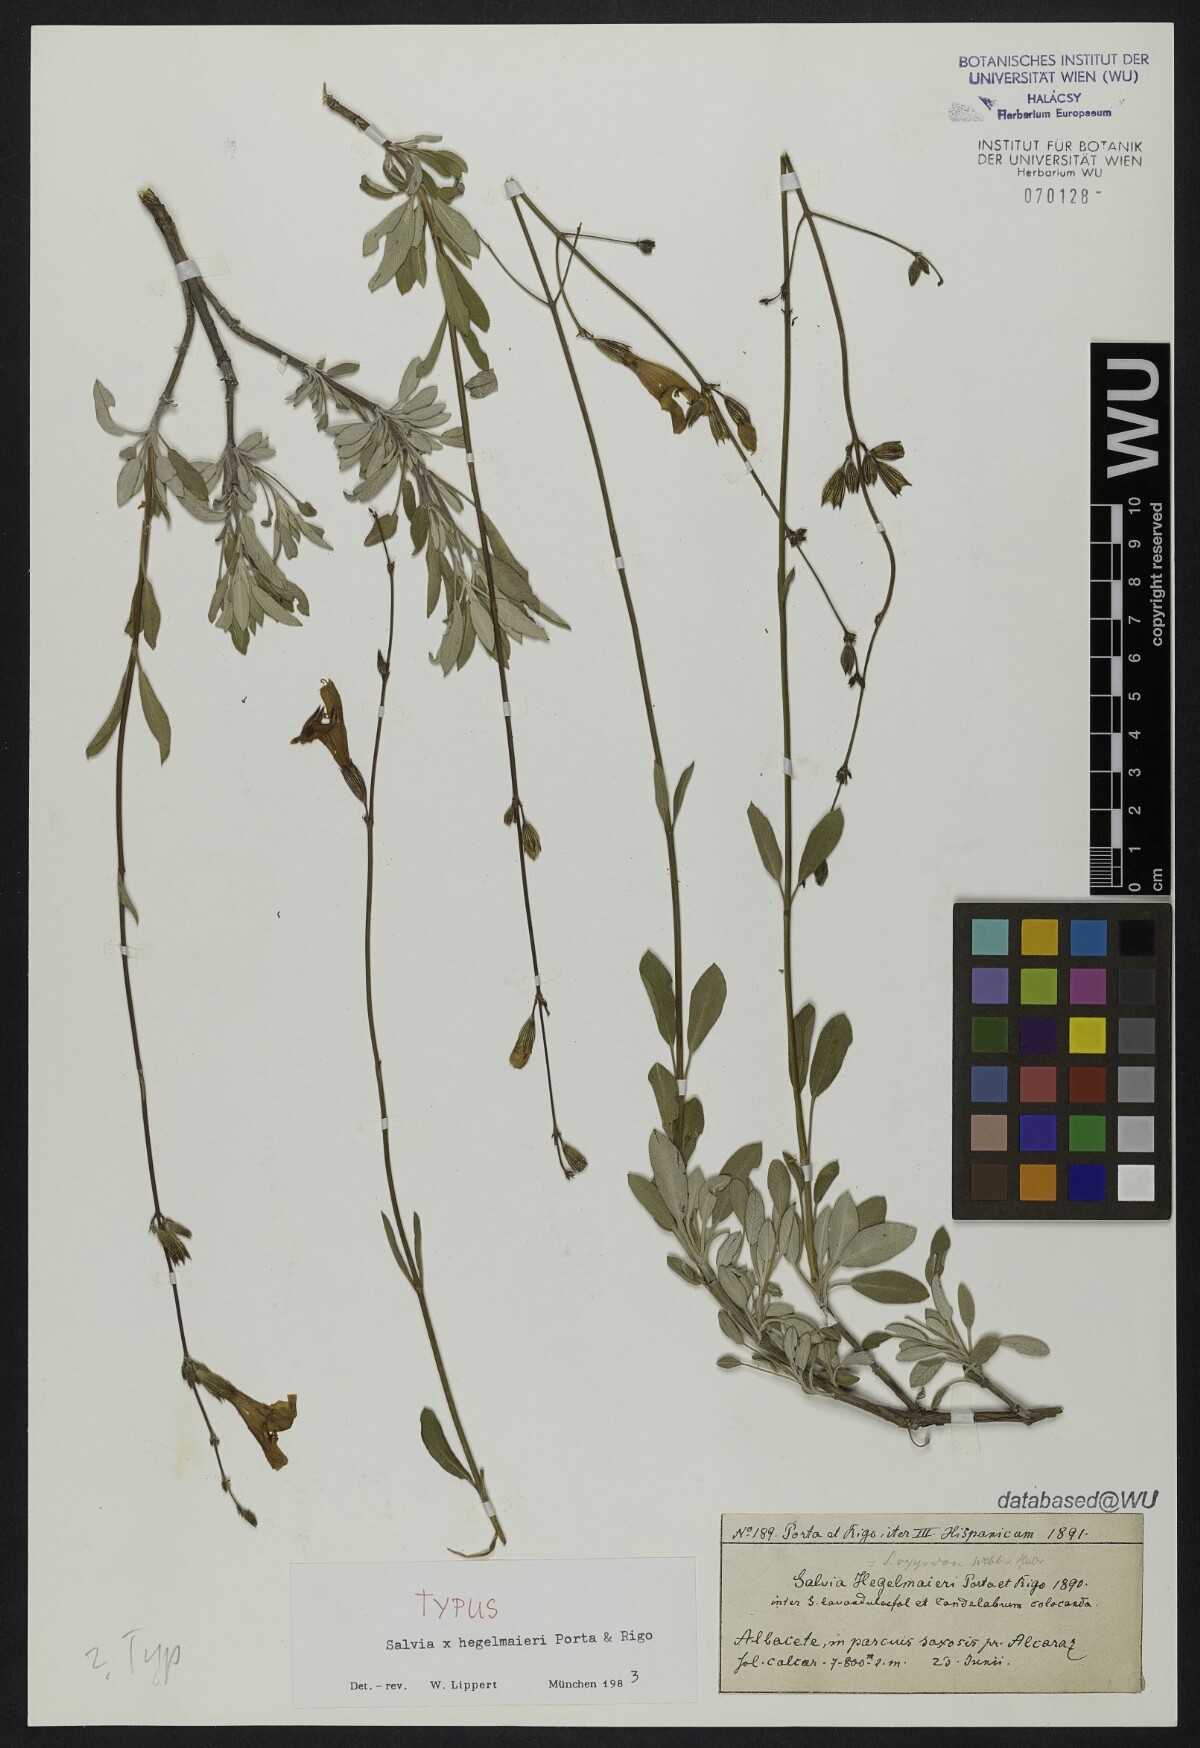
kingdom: Plantae
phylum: Tracheophyta
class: Magnoliopsida
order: Lamiales
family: Lamiaceae
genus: Salvia
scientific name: Salvia hegelmaieri
